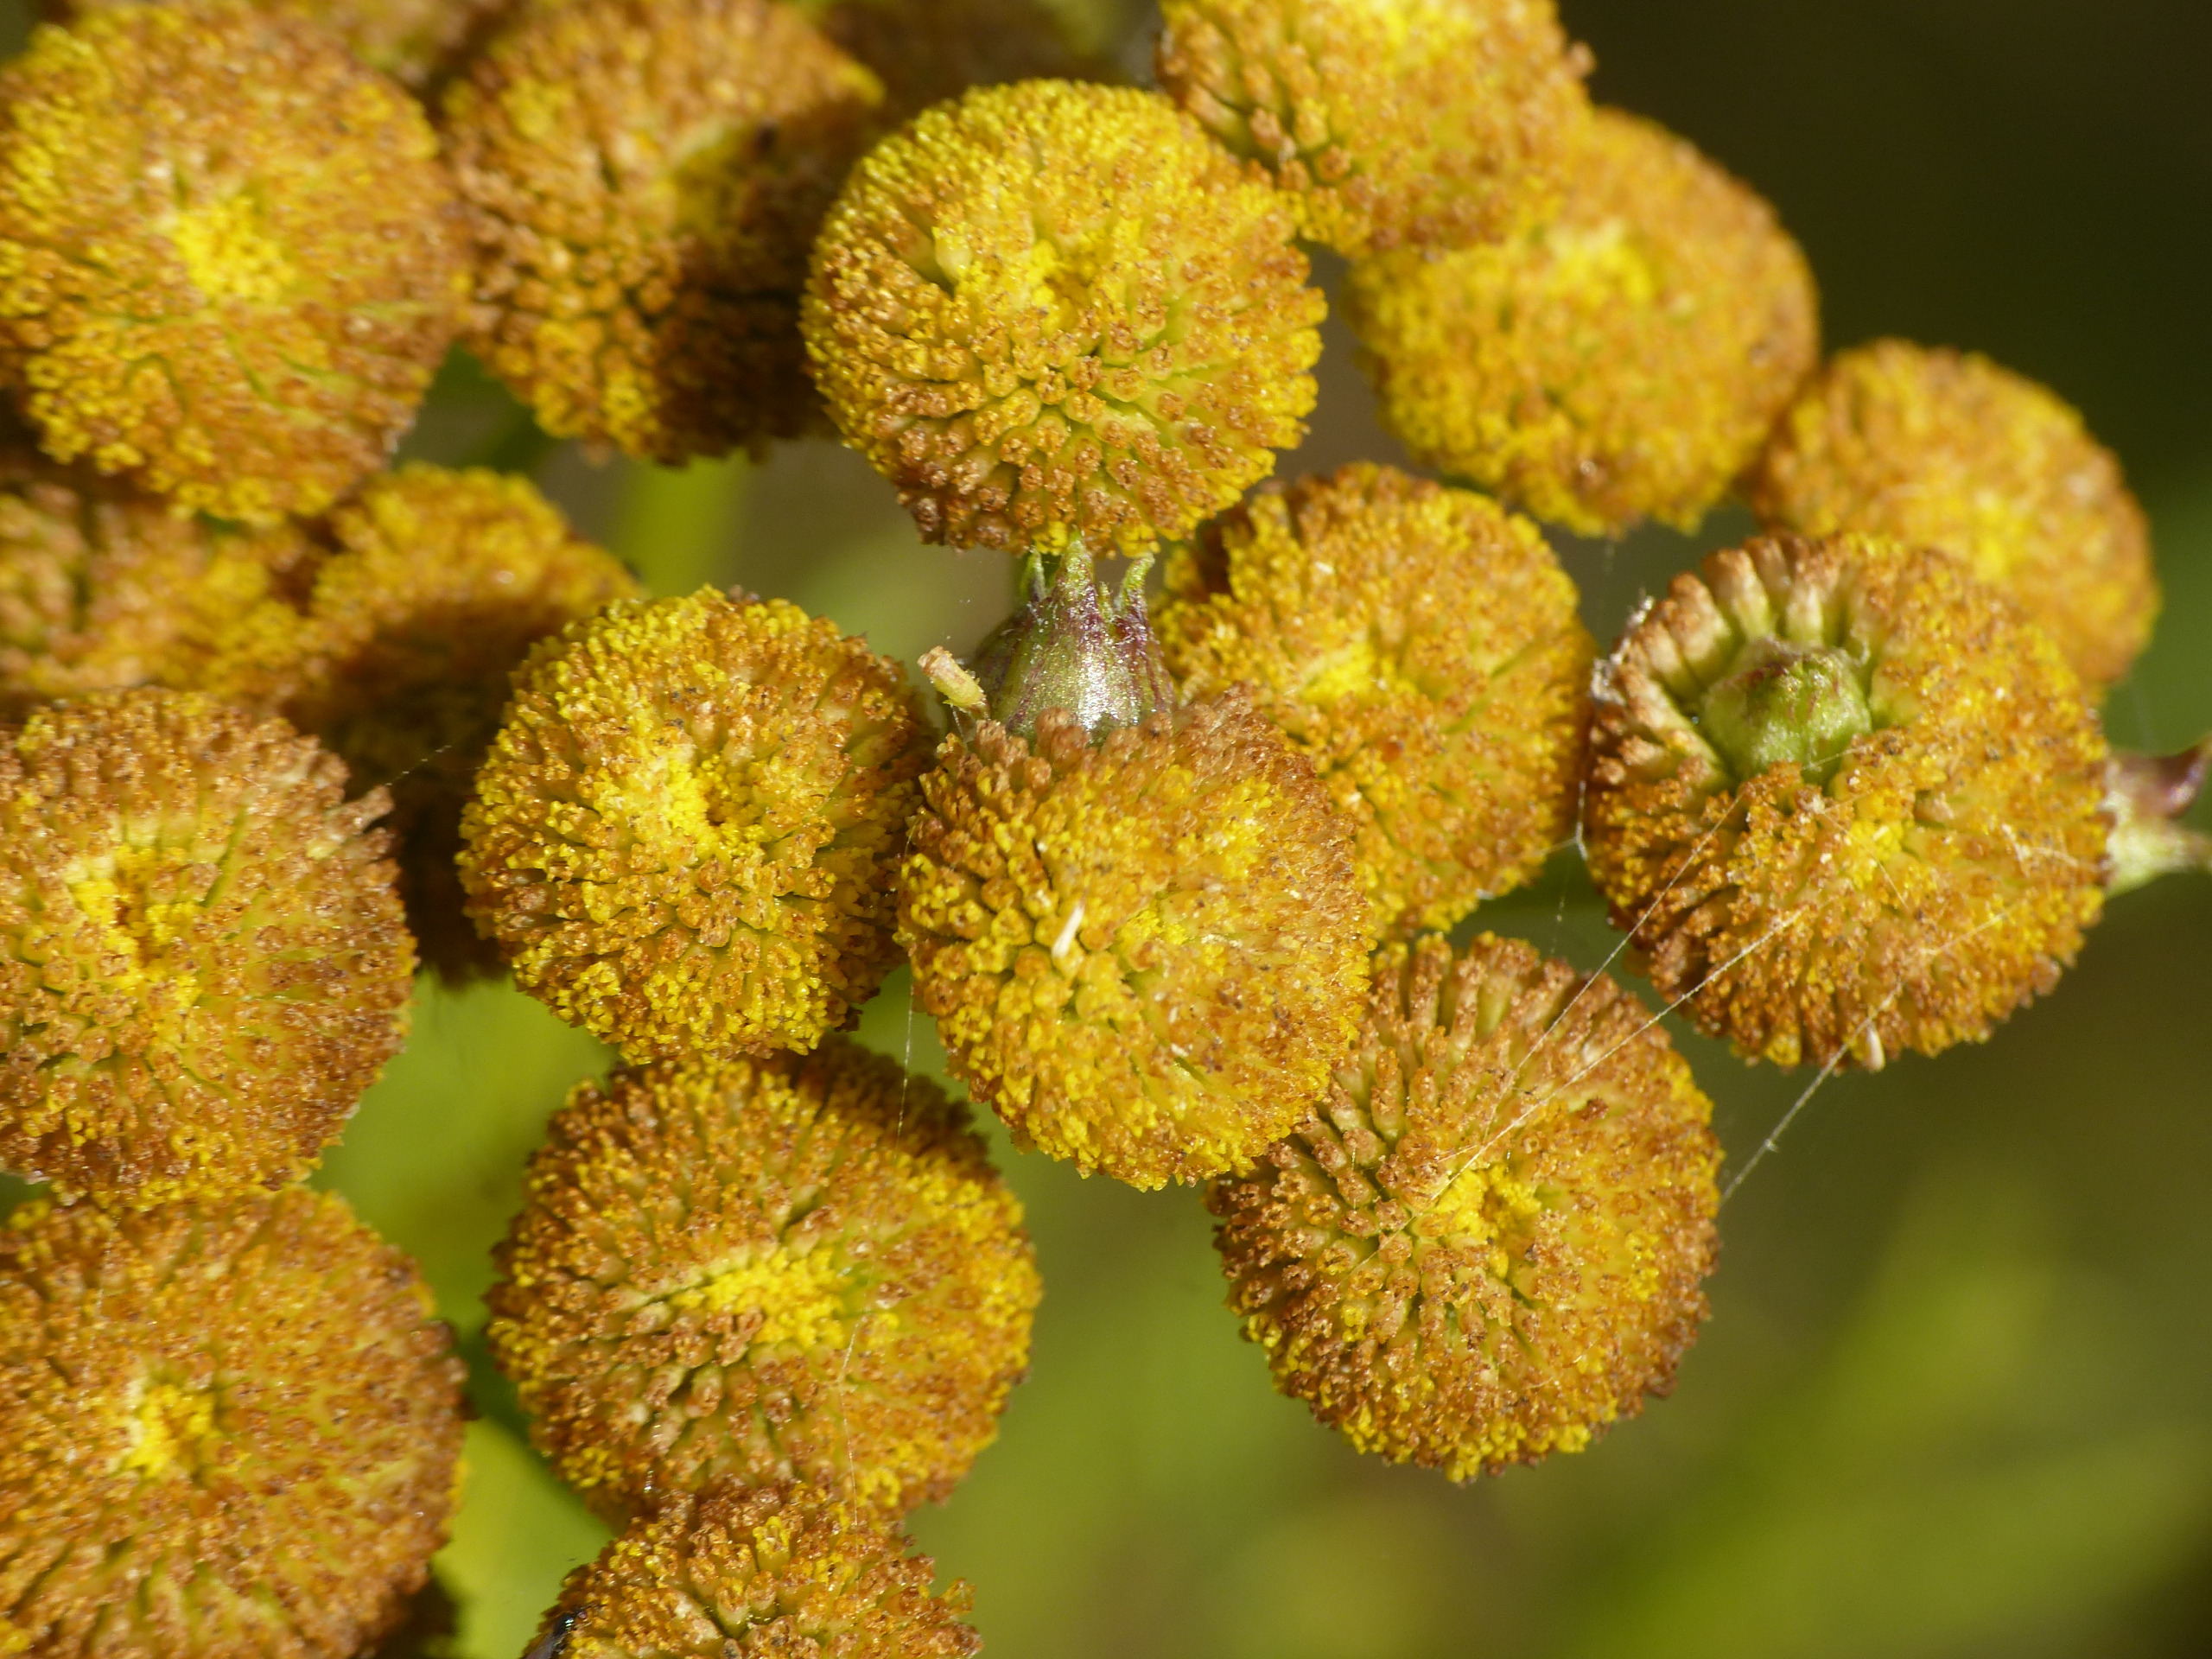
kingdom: Animalia
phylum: Arthropoda
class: Insecta
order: Diptera
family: Cecidomyiidae
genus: Rhopalomyia
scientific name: Rhopalomyia tanaceticolus
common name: Rejnfangalmyg
